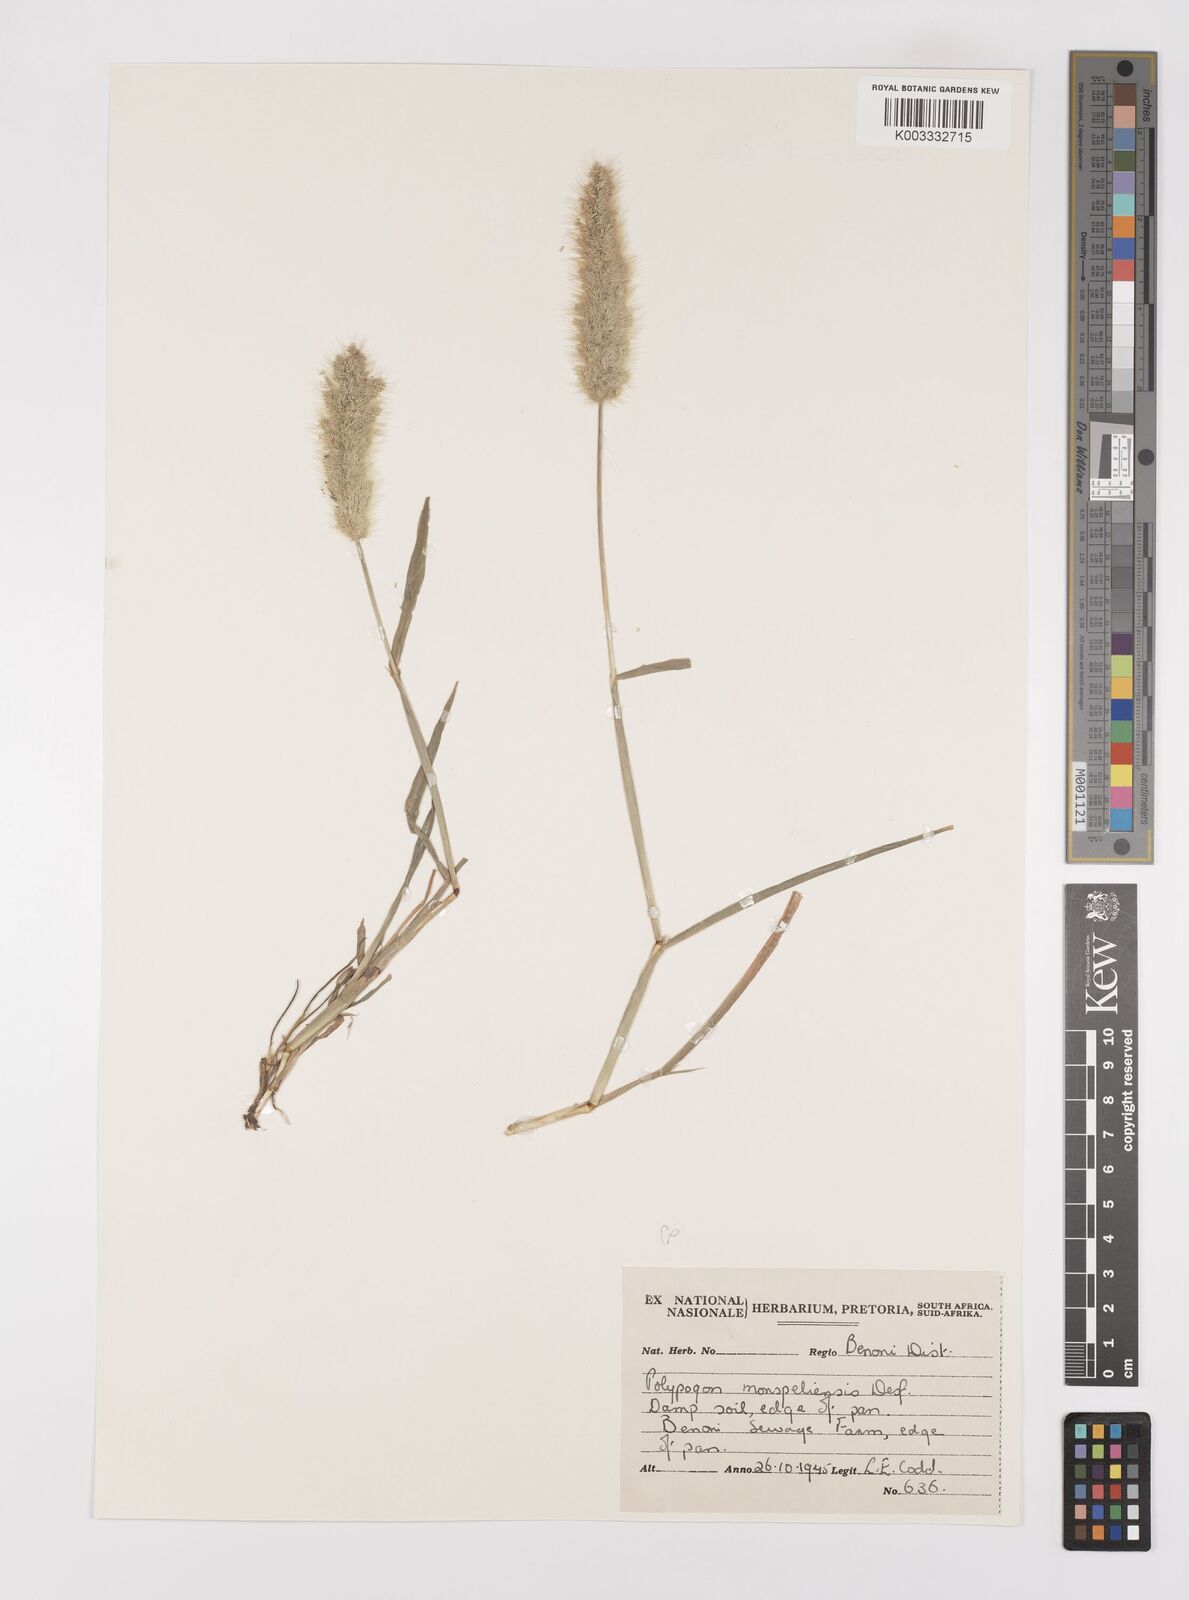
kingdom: Plantae
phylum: Tracheophyta
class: Liliopsida
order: Poales
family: Poaceae
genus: Polypogon
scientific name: Polypogon monspeliensis
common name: Annual rabbitsfoot grass
